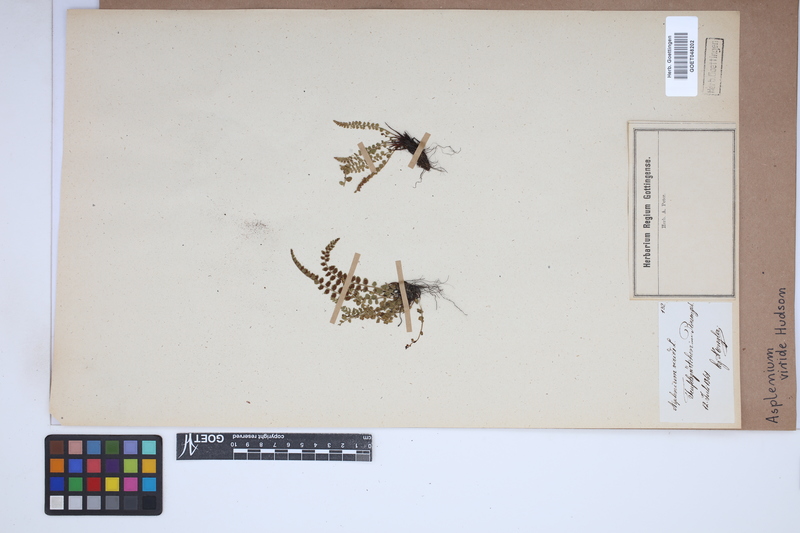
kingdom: Plantae
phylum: Tracheophyta
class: Polypodiopsida
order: Polypodiales
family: Aspleniaceae
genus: Asplenium
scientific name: Asplenium viride
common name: Green spleenwort
